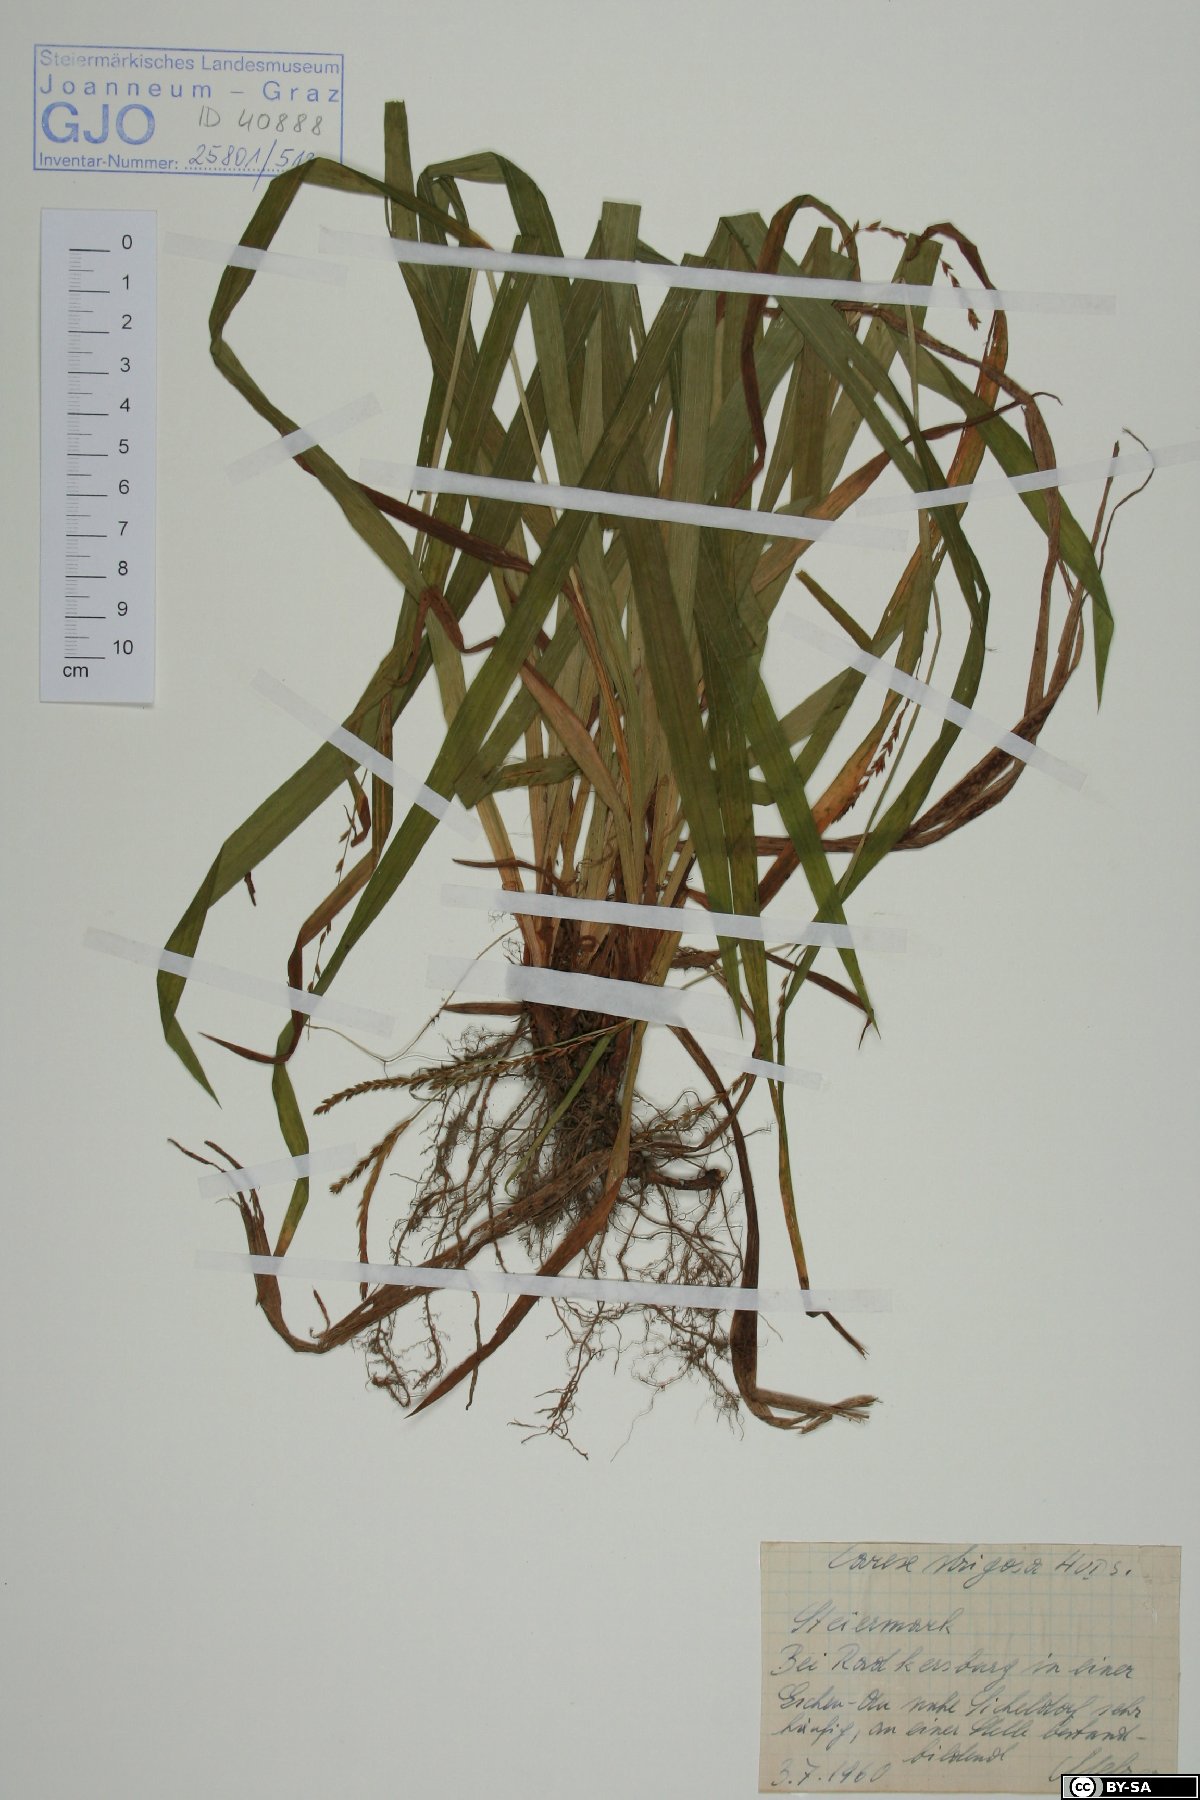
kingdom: Plantae
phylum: Tracheophyta
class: Liliopsida
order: Poales
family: Cyperaceae
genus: Carex
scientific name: Carex strigosa
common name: Thin-spiked wood-sedge
